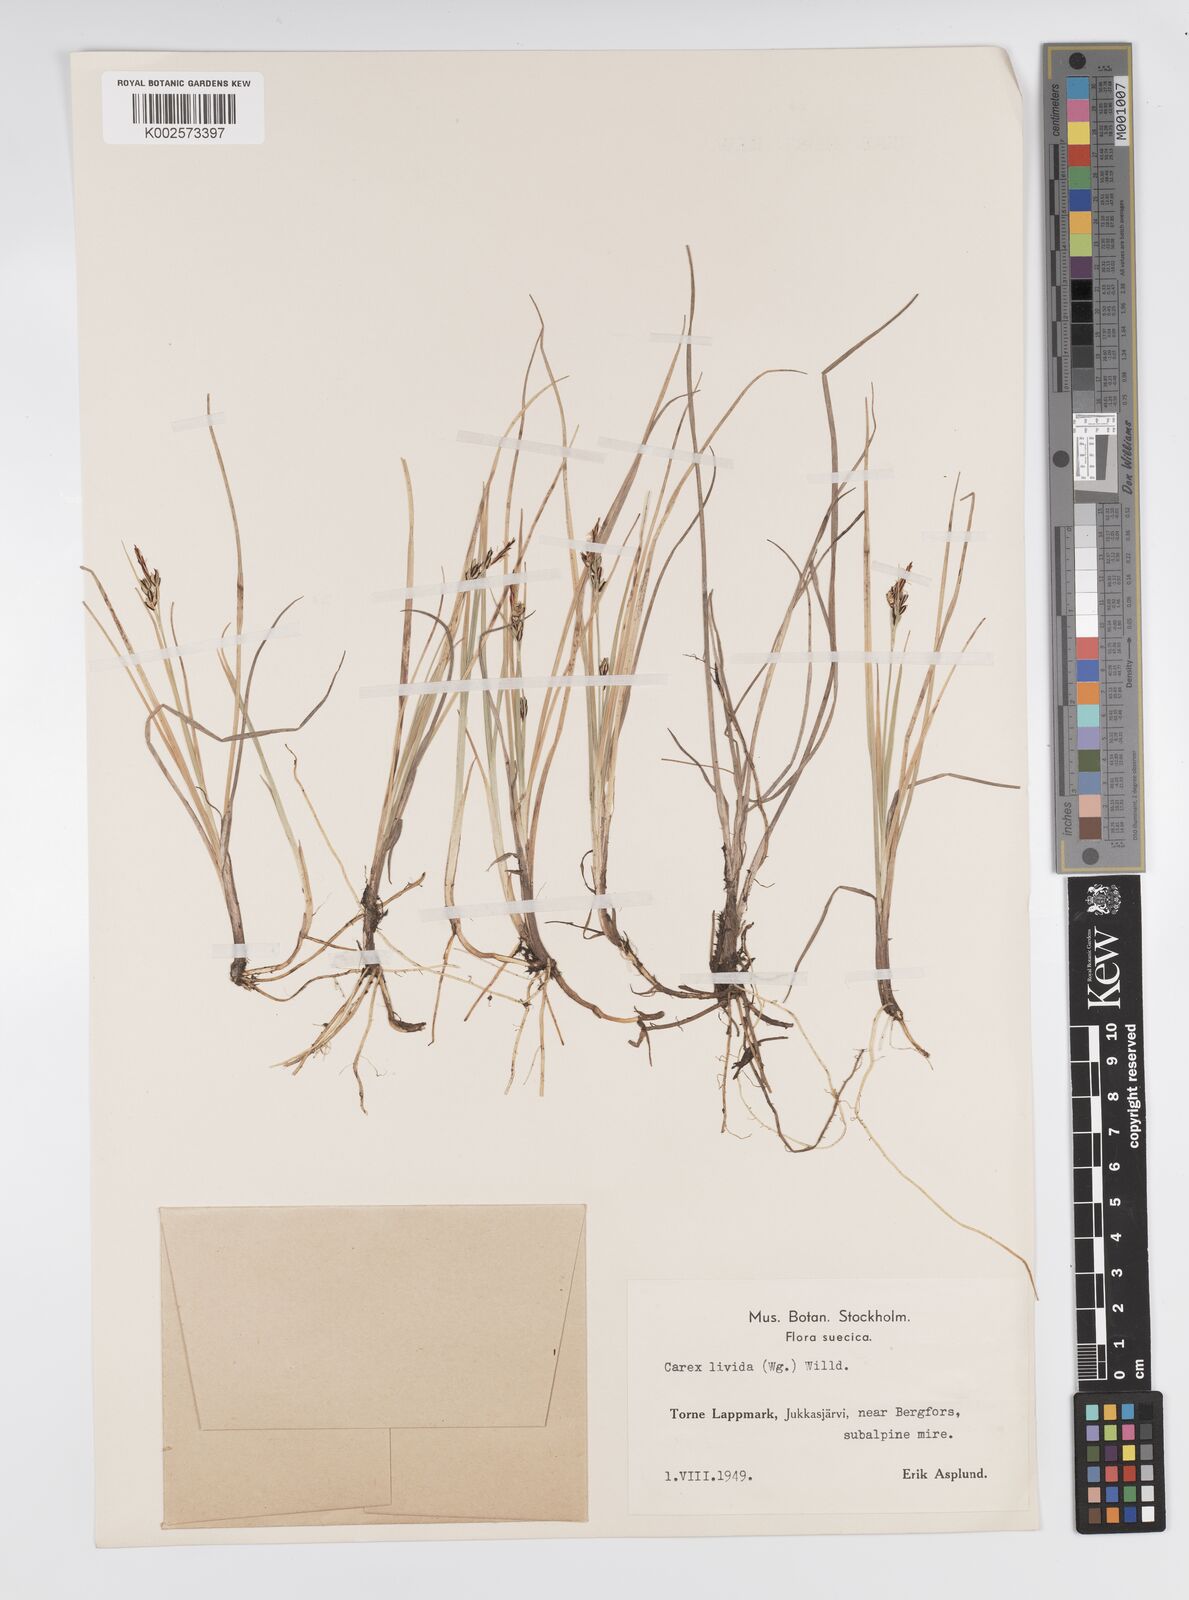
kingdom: Plantae
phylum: Tracheophyta
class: Liliopsida
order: Poales
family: Cyperaceae
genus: Carex
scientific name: Carex livida
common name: Livid sedge
